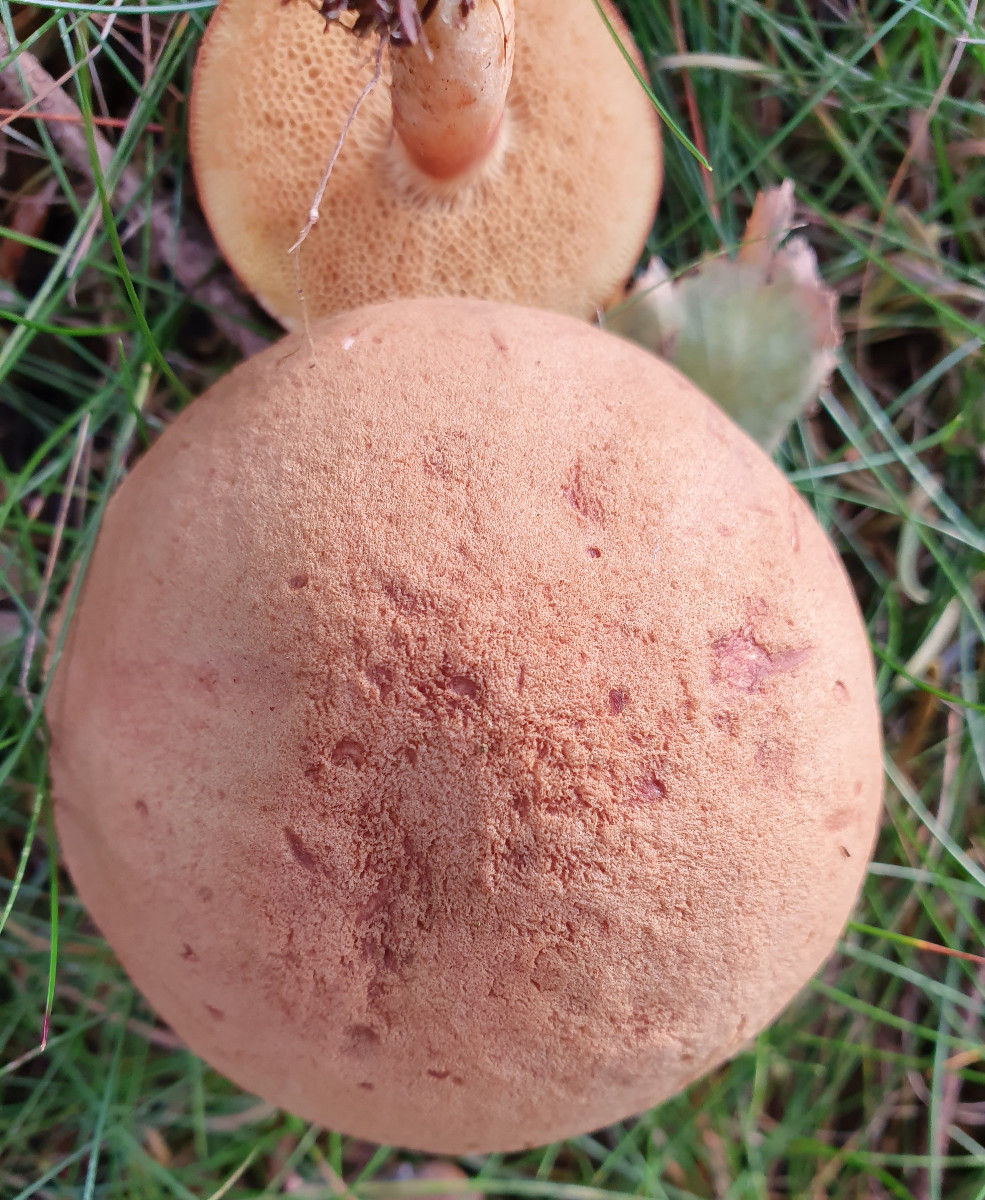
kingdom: Fungi
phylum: Basidiomycota
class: Agaricomycetes
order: Boletales
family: Boletaceae
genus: Xerocomus
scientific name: Xerocomus ferrugineus
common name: vaskeskinds-rørhat
